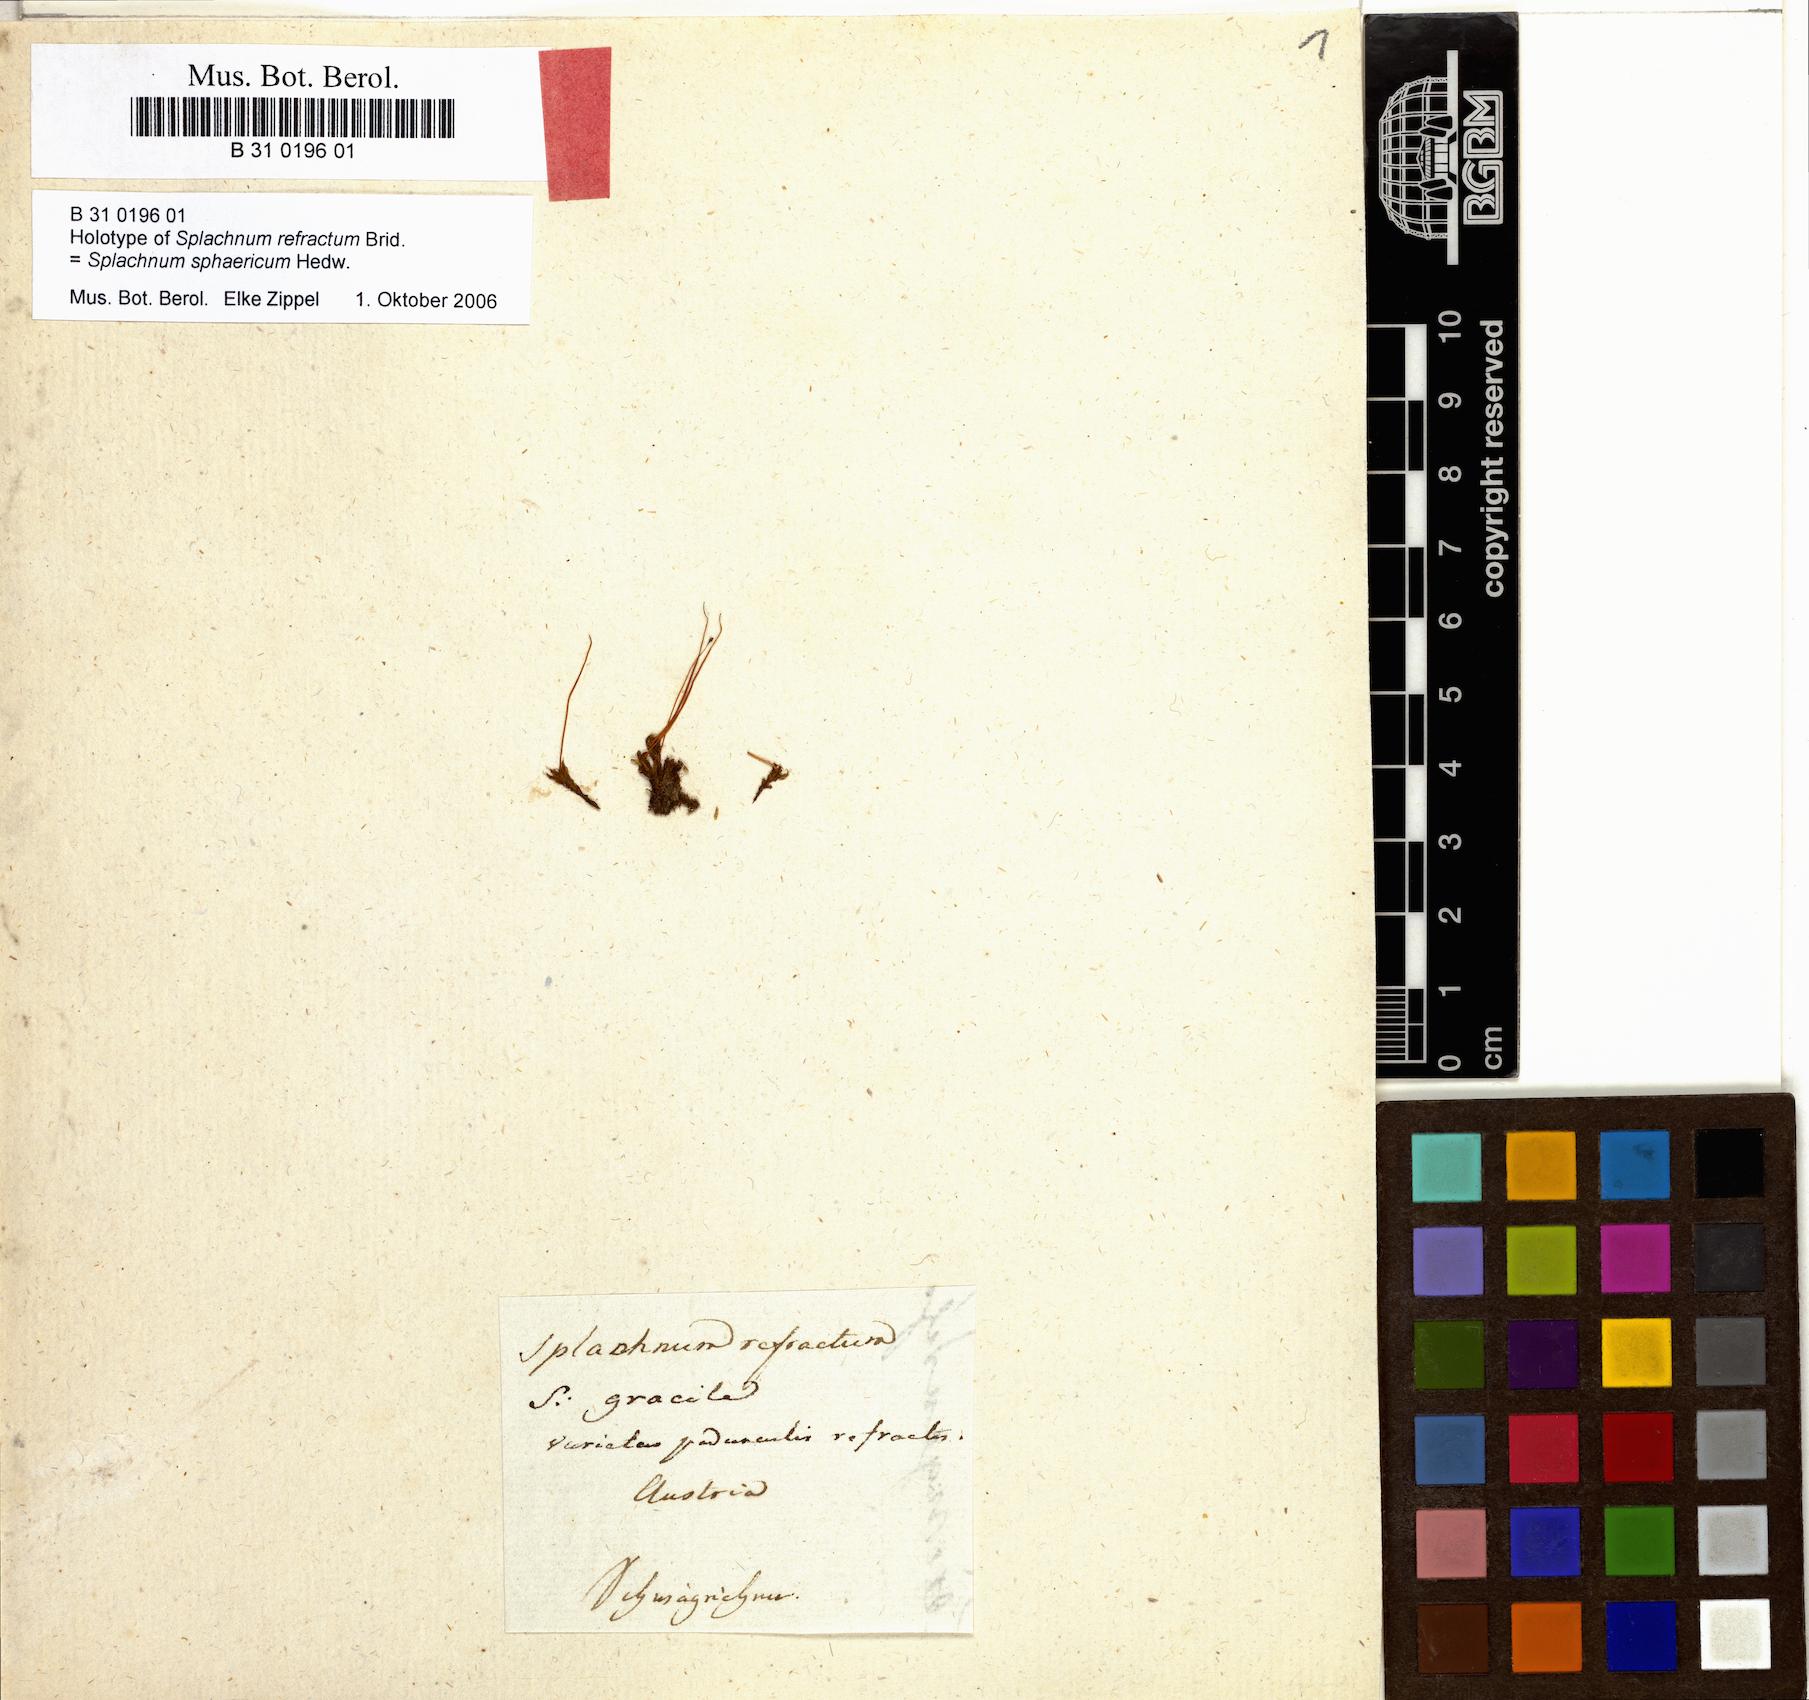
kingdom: Plantae
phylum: Bryophyta
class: Bryopsida
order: Splachnales
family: Splachnaceae
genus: Splachnum
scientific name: Splachnum sphaericum
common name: Round-fruited dung moss
